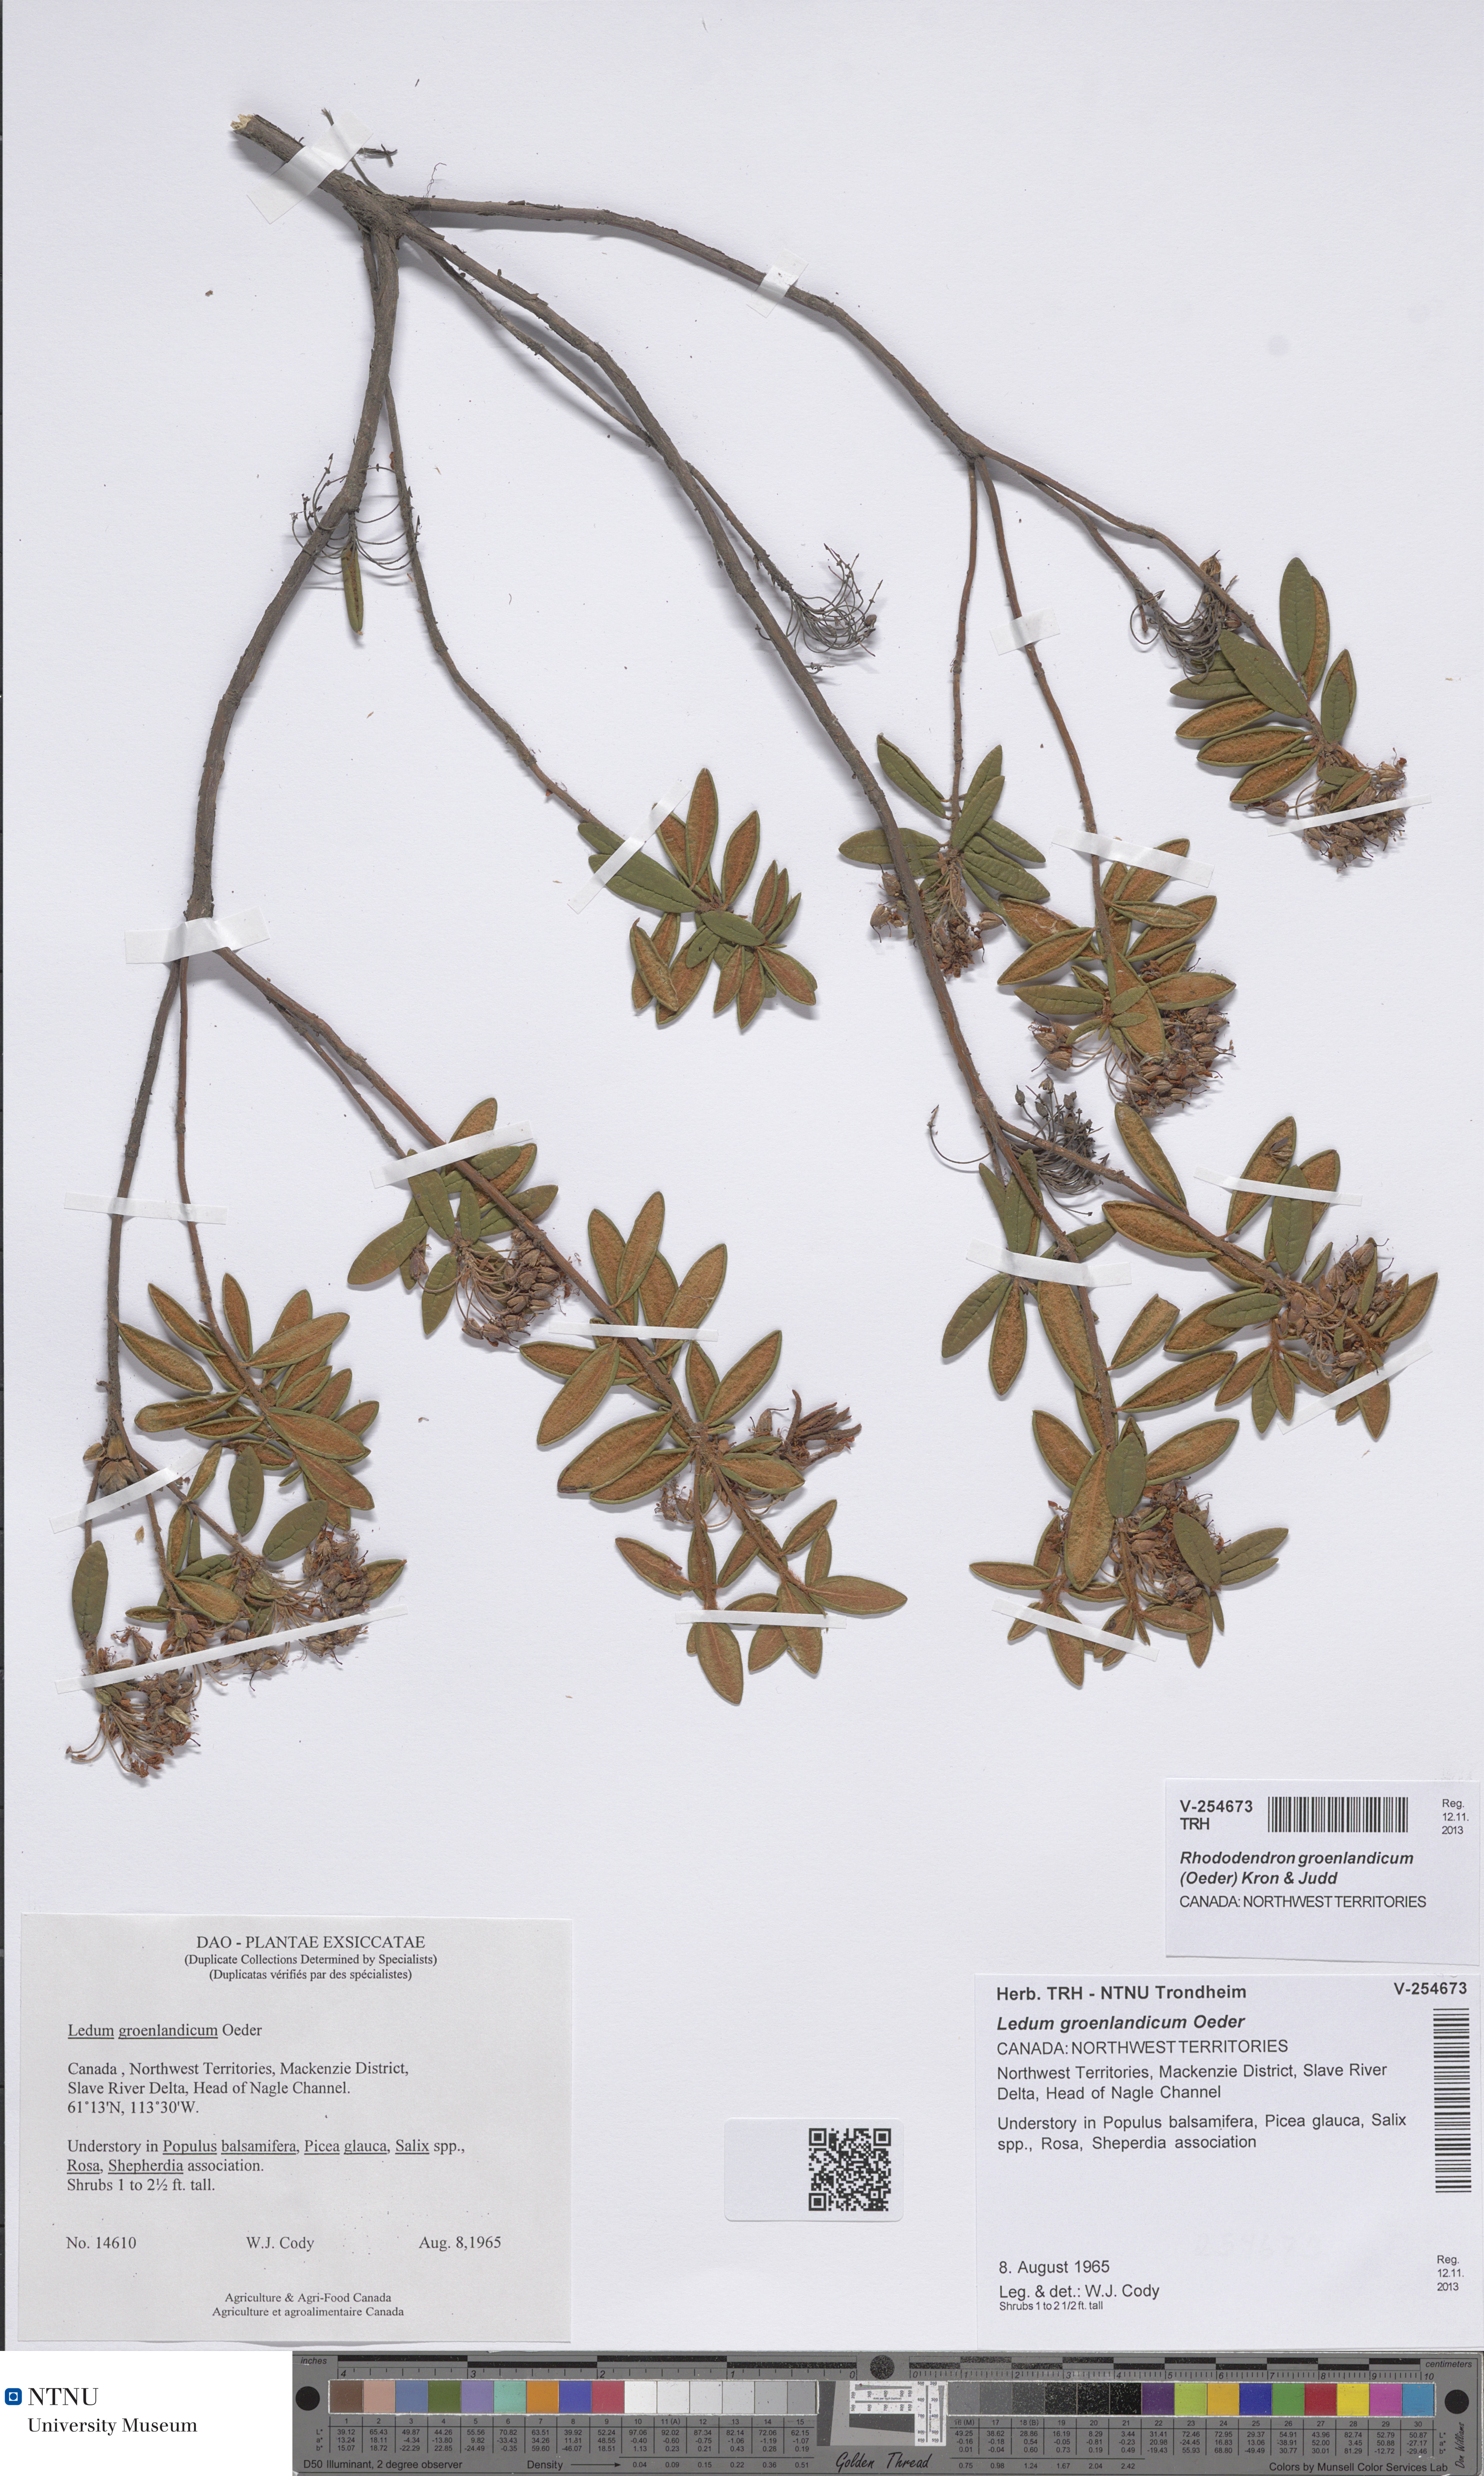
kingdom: Plantae
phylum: Tracheophyta
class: Magnoliopsida
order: Ericales
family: Ericaceae
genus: Rhododendron
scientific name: Rhododendron groenlandicum
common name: Bog labrador tea
